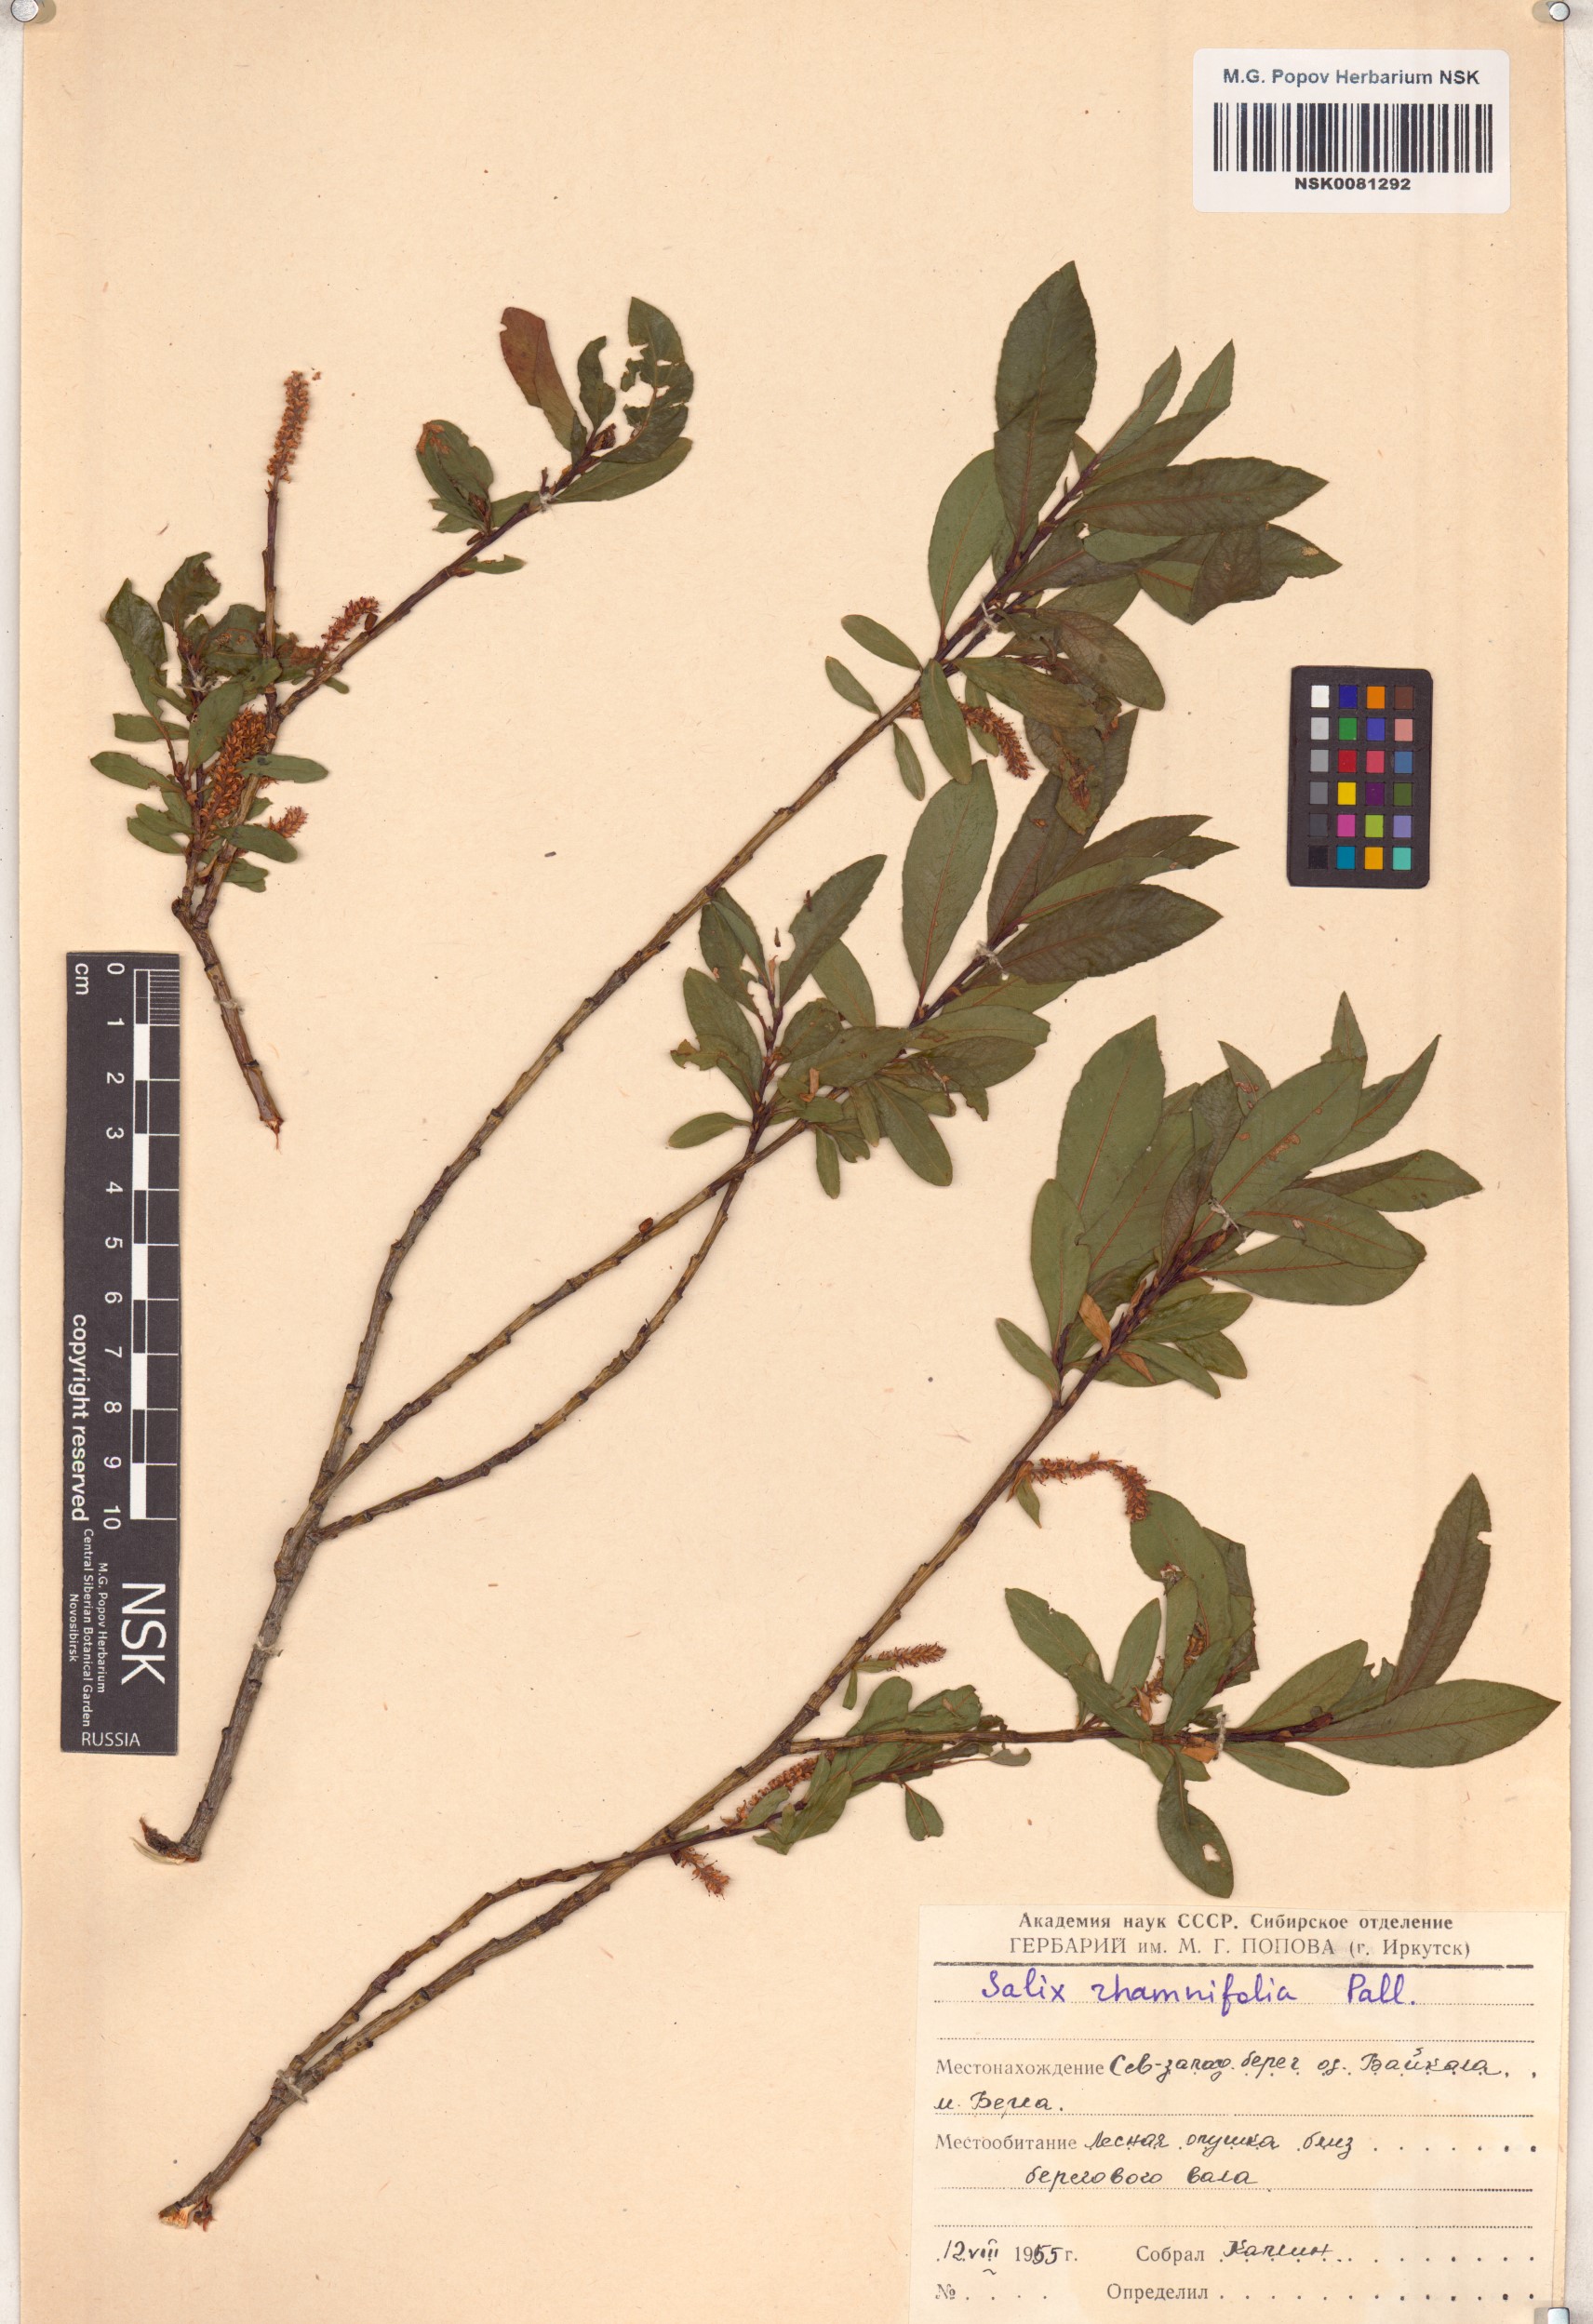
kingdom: Plantae
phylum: Tracheophyta
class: Magnoliopsida
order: Malpighiales
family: Salicaceae
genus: Salix
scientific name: Salix rhamnifolia
